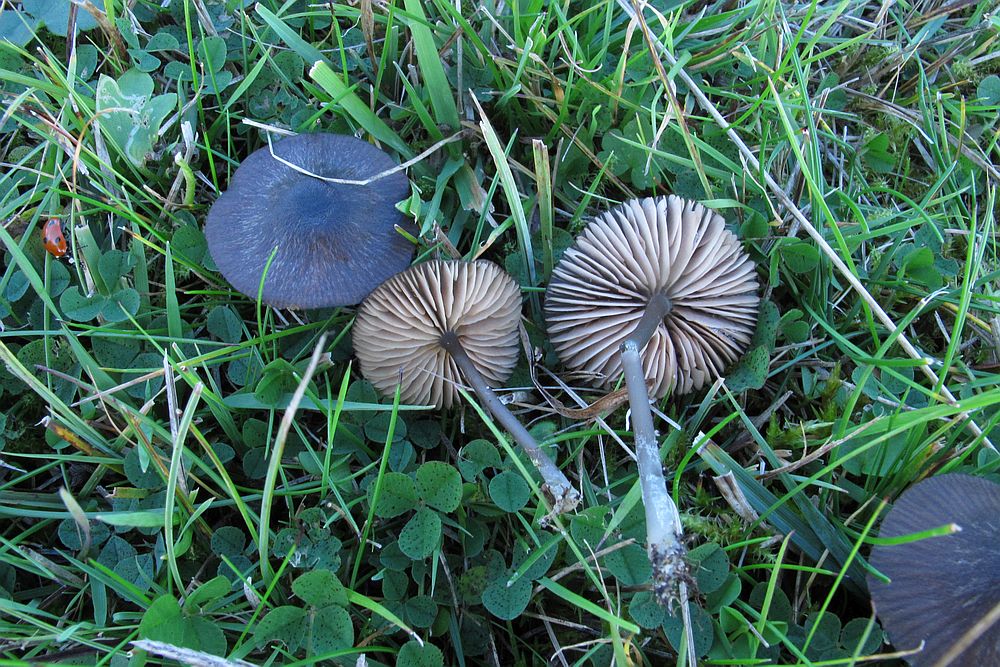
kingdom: Fungi
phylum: Basidiomycota
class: Agaricomycetes
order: Agaricales
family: Entolomataceae
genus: Entoloma
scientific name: Entoloma
